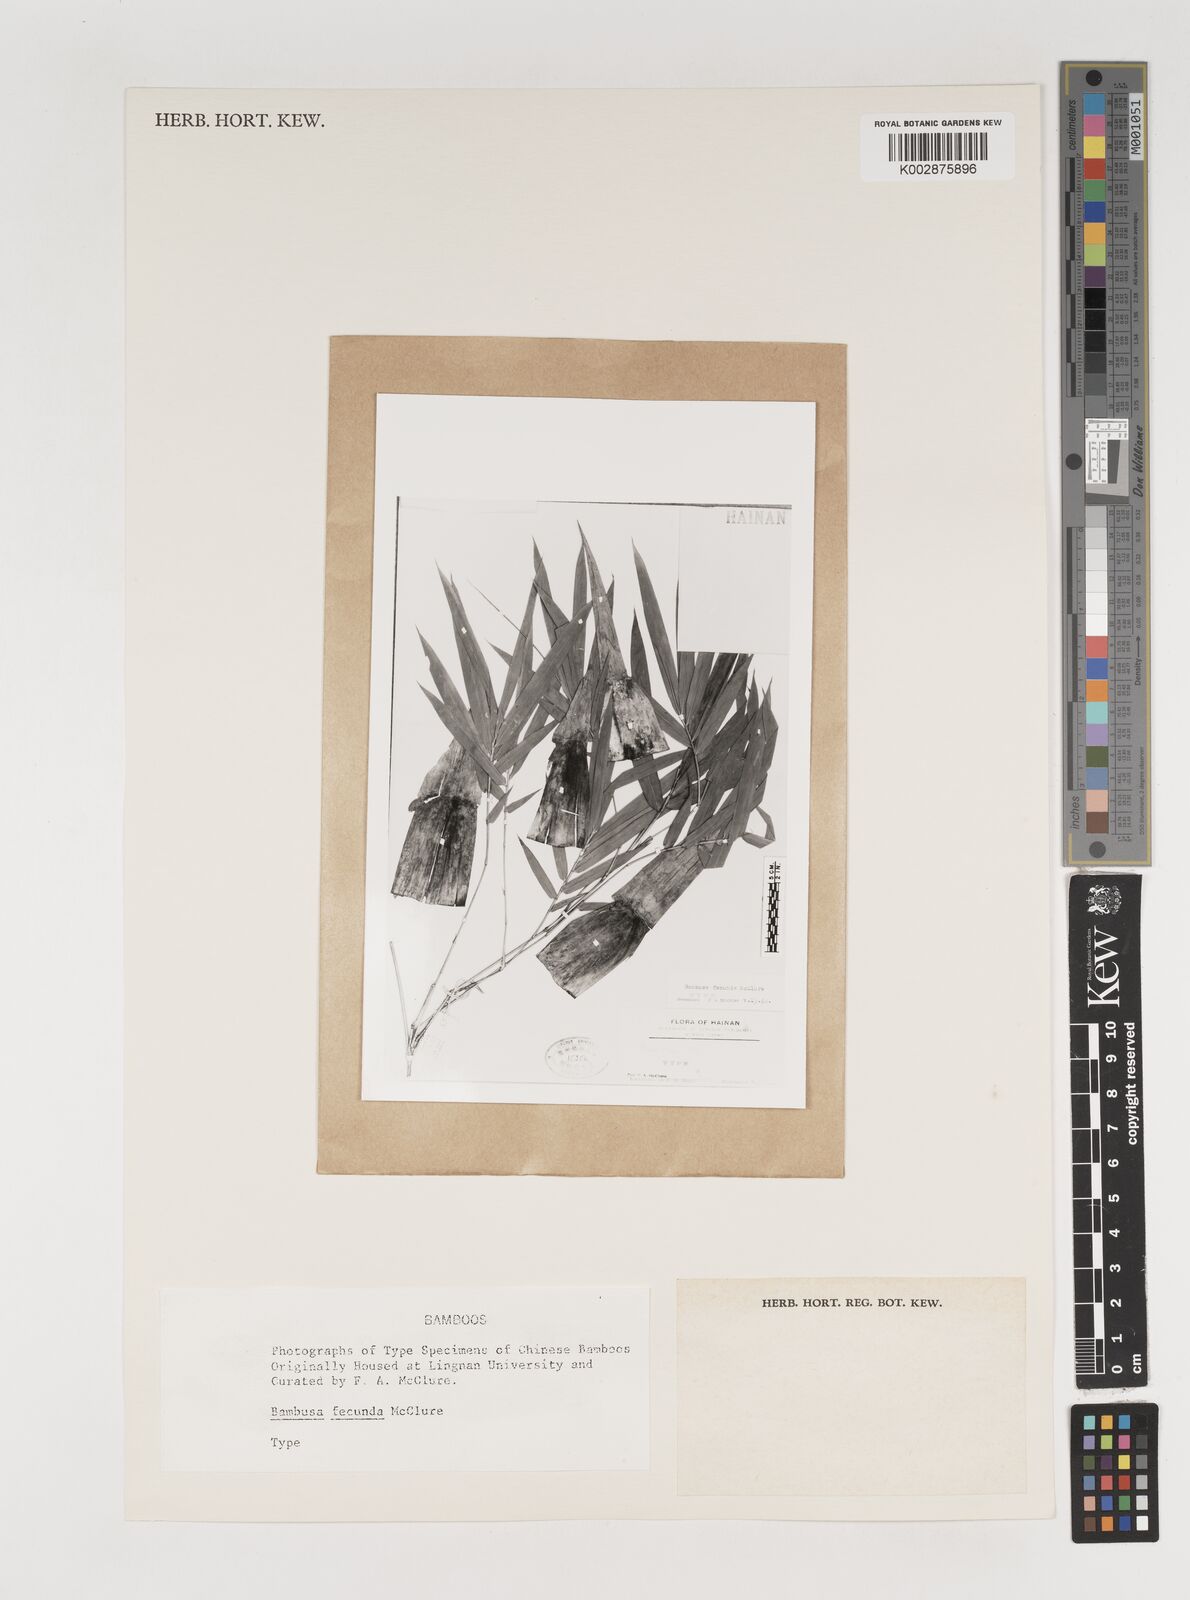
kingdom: Plantae
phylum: Tracheophyta
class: Liliopsida
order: Poales
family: Poaceae
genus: Bambusa
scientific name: Bambusa boniopsis
